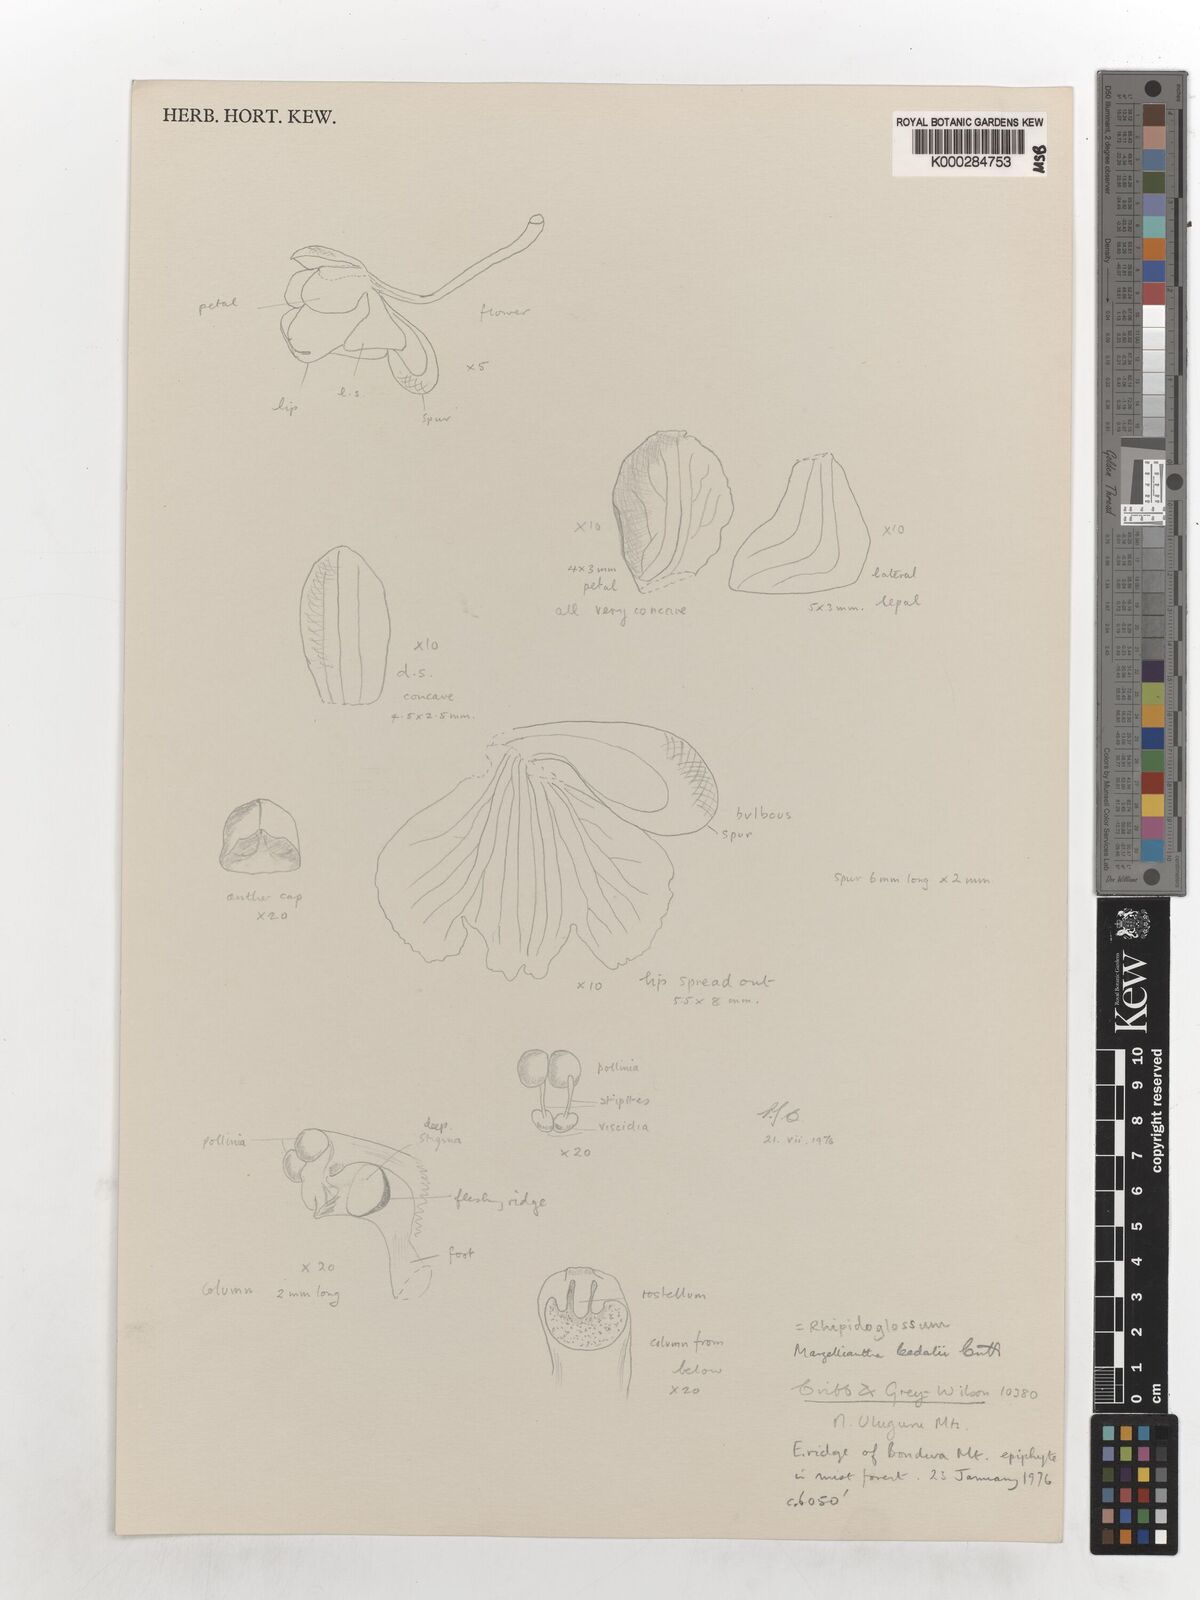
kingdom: Plantae
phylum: Tracheophyta
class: Liliopsida
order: Asparagales
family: Orchidaceae
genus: Rhipidoglossum
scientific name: Rhipidoglossum leedalii
